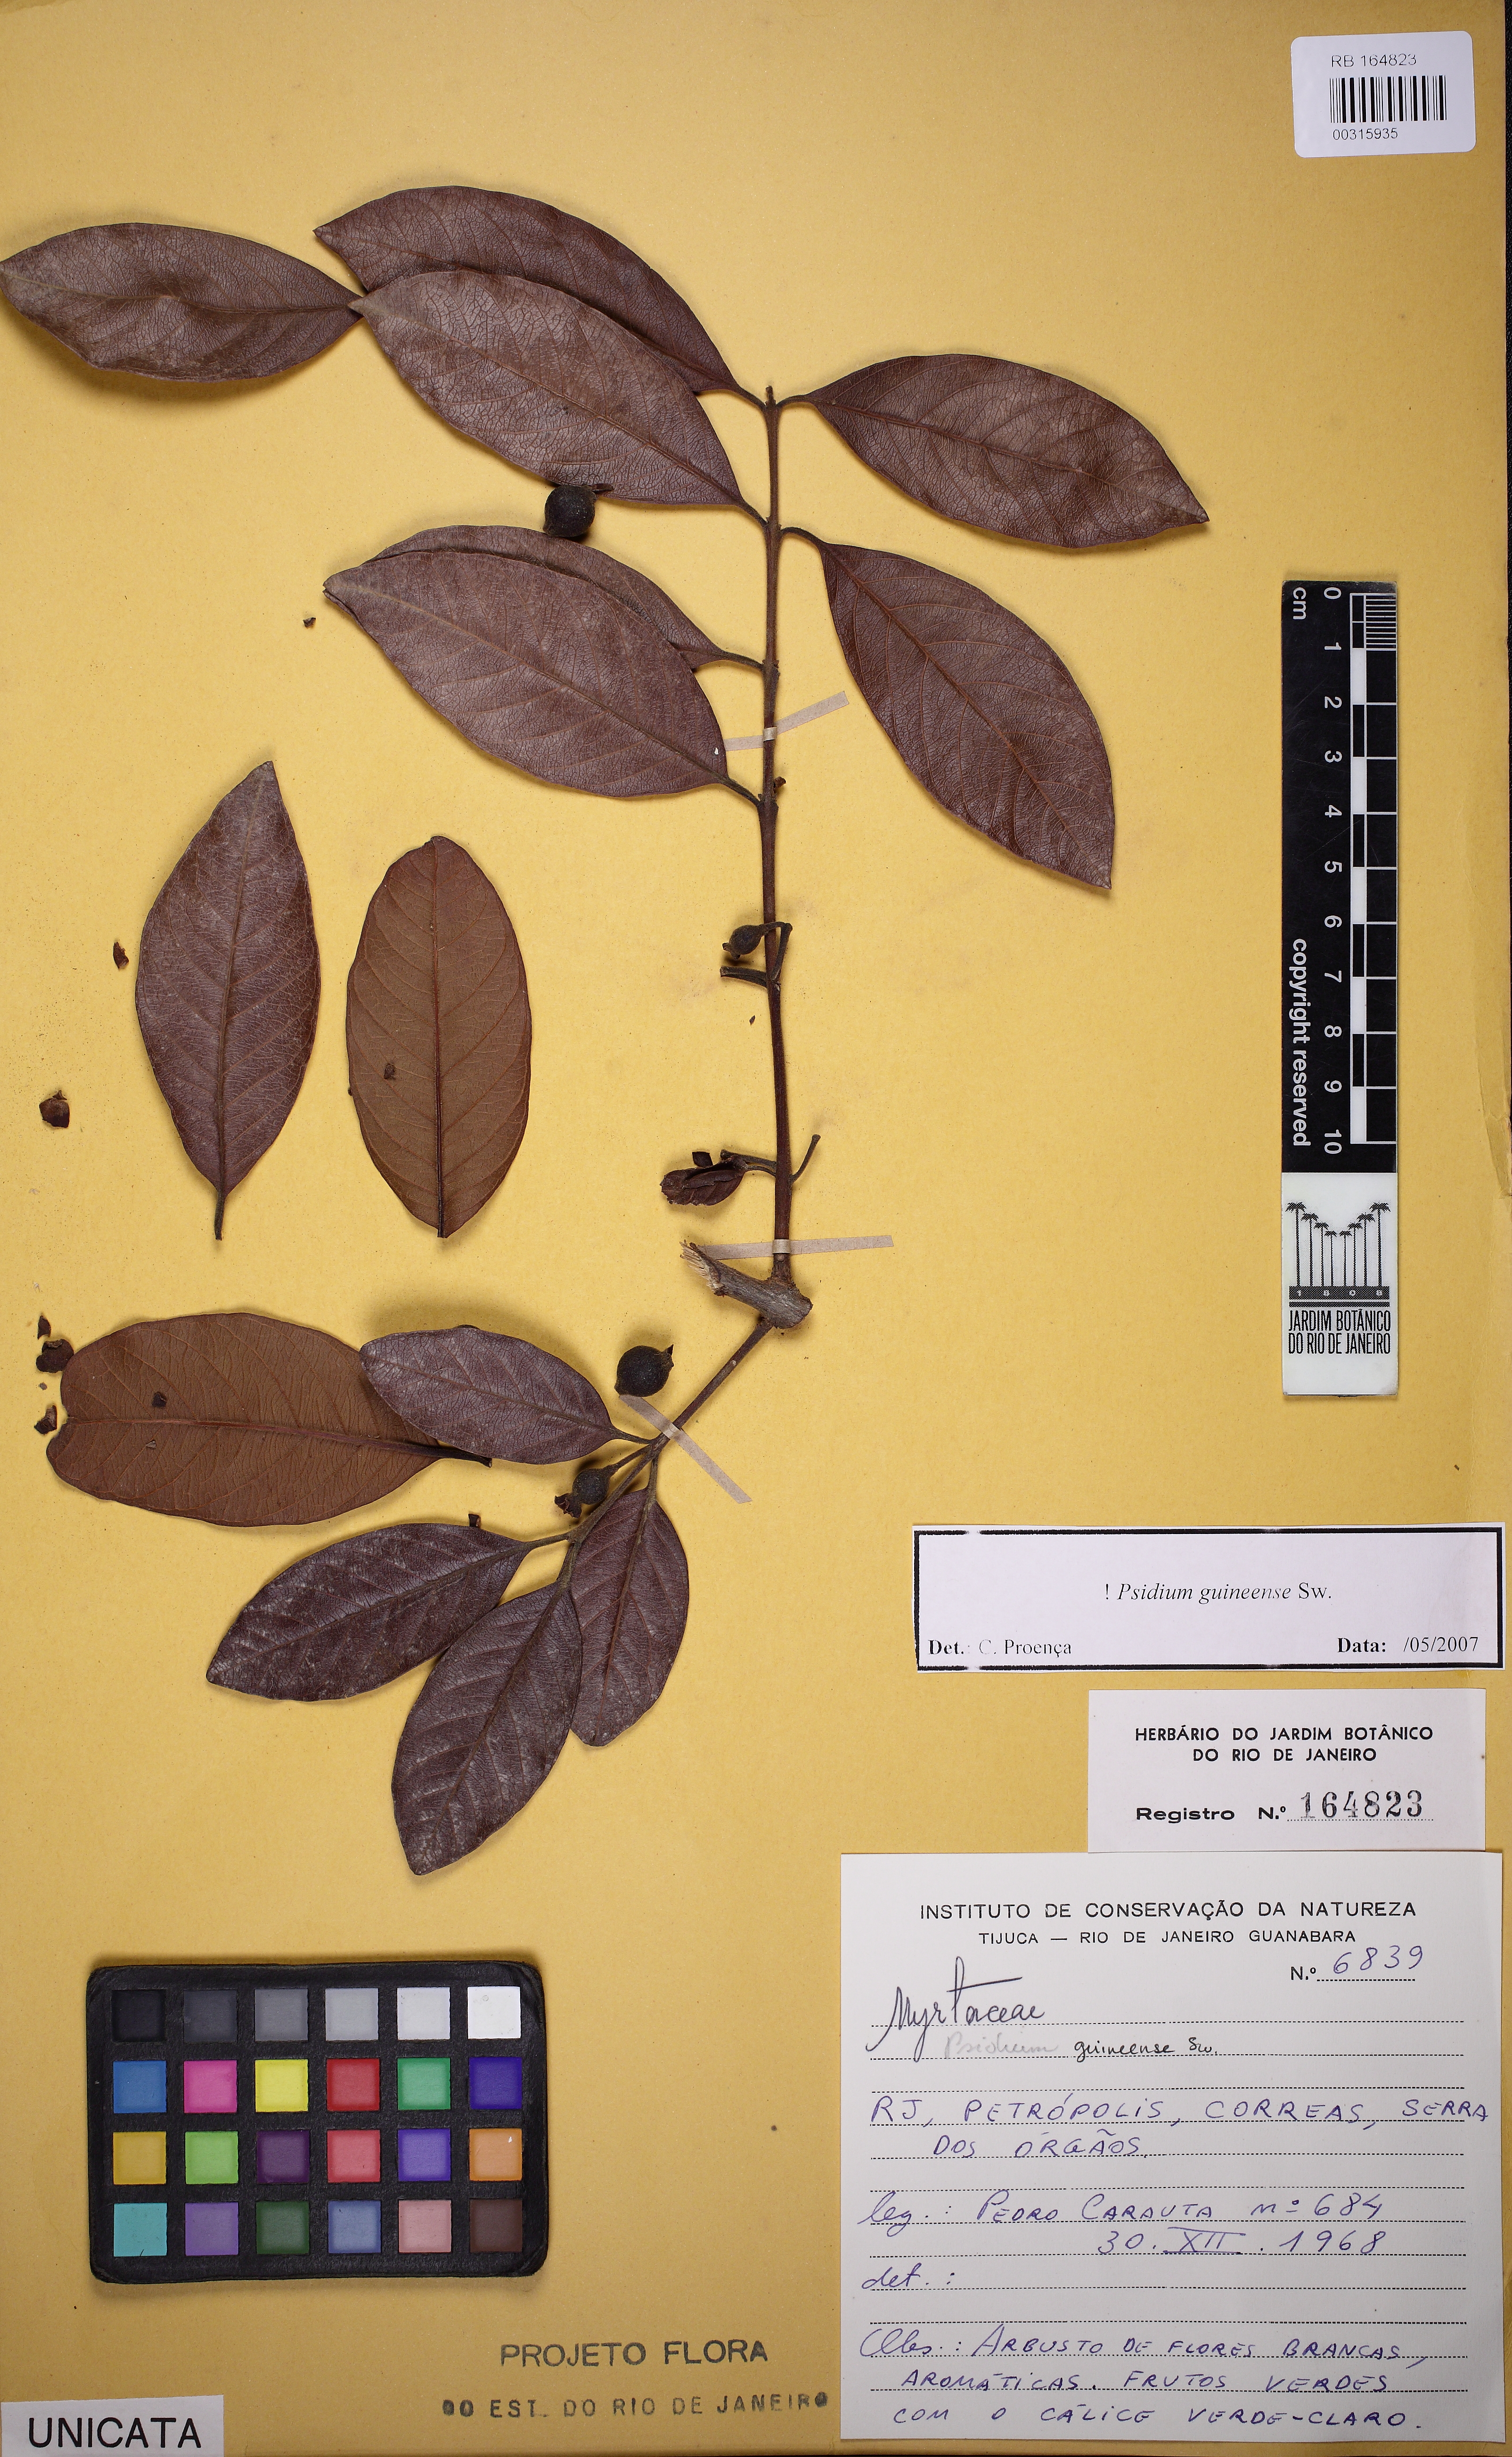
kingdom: Plantae
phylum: Tracheophyta
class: Magnoliopsida
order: Myrtales
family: Myrtaceae
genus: Psidium
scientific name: Psidium guineense
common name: Brazilian guava
